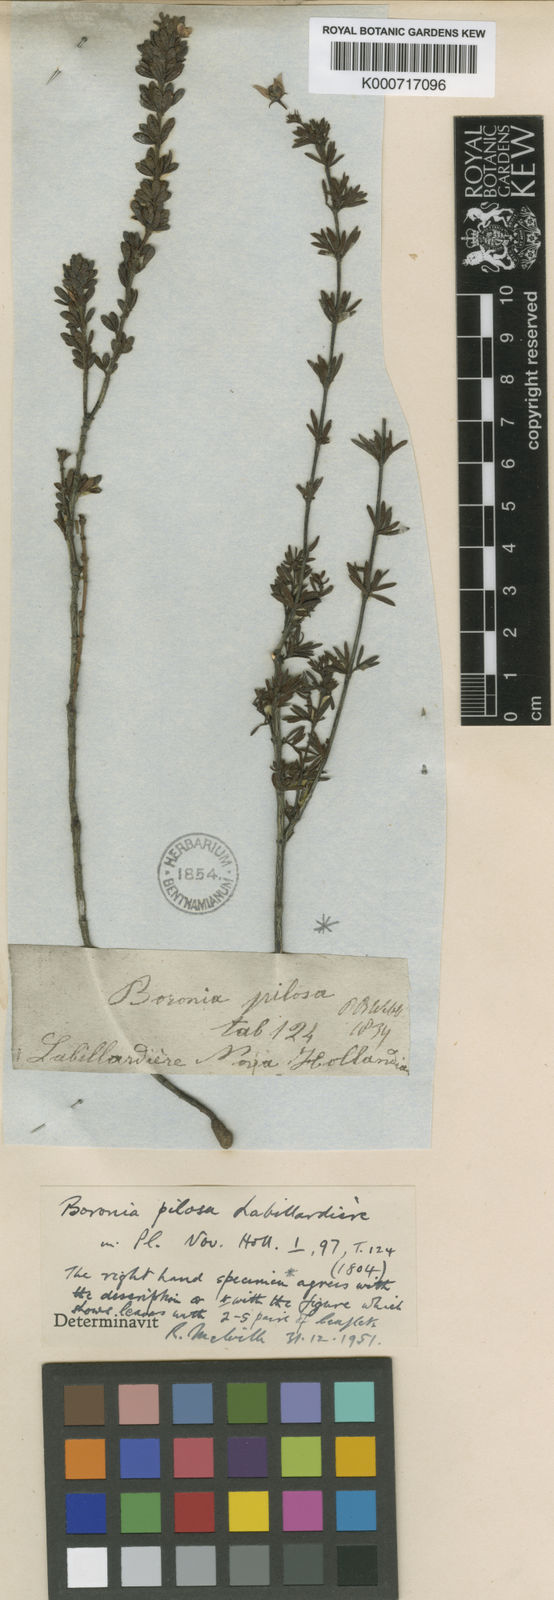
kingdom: Plantae
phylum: Tracheophyta
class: Magnoliopsida
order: Sapindales
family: Rutaceae
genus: Boronia
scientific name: Boronia pilosa
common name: Hairy boronia
